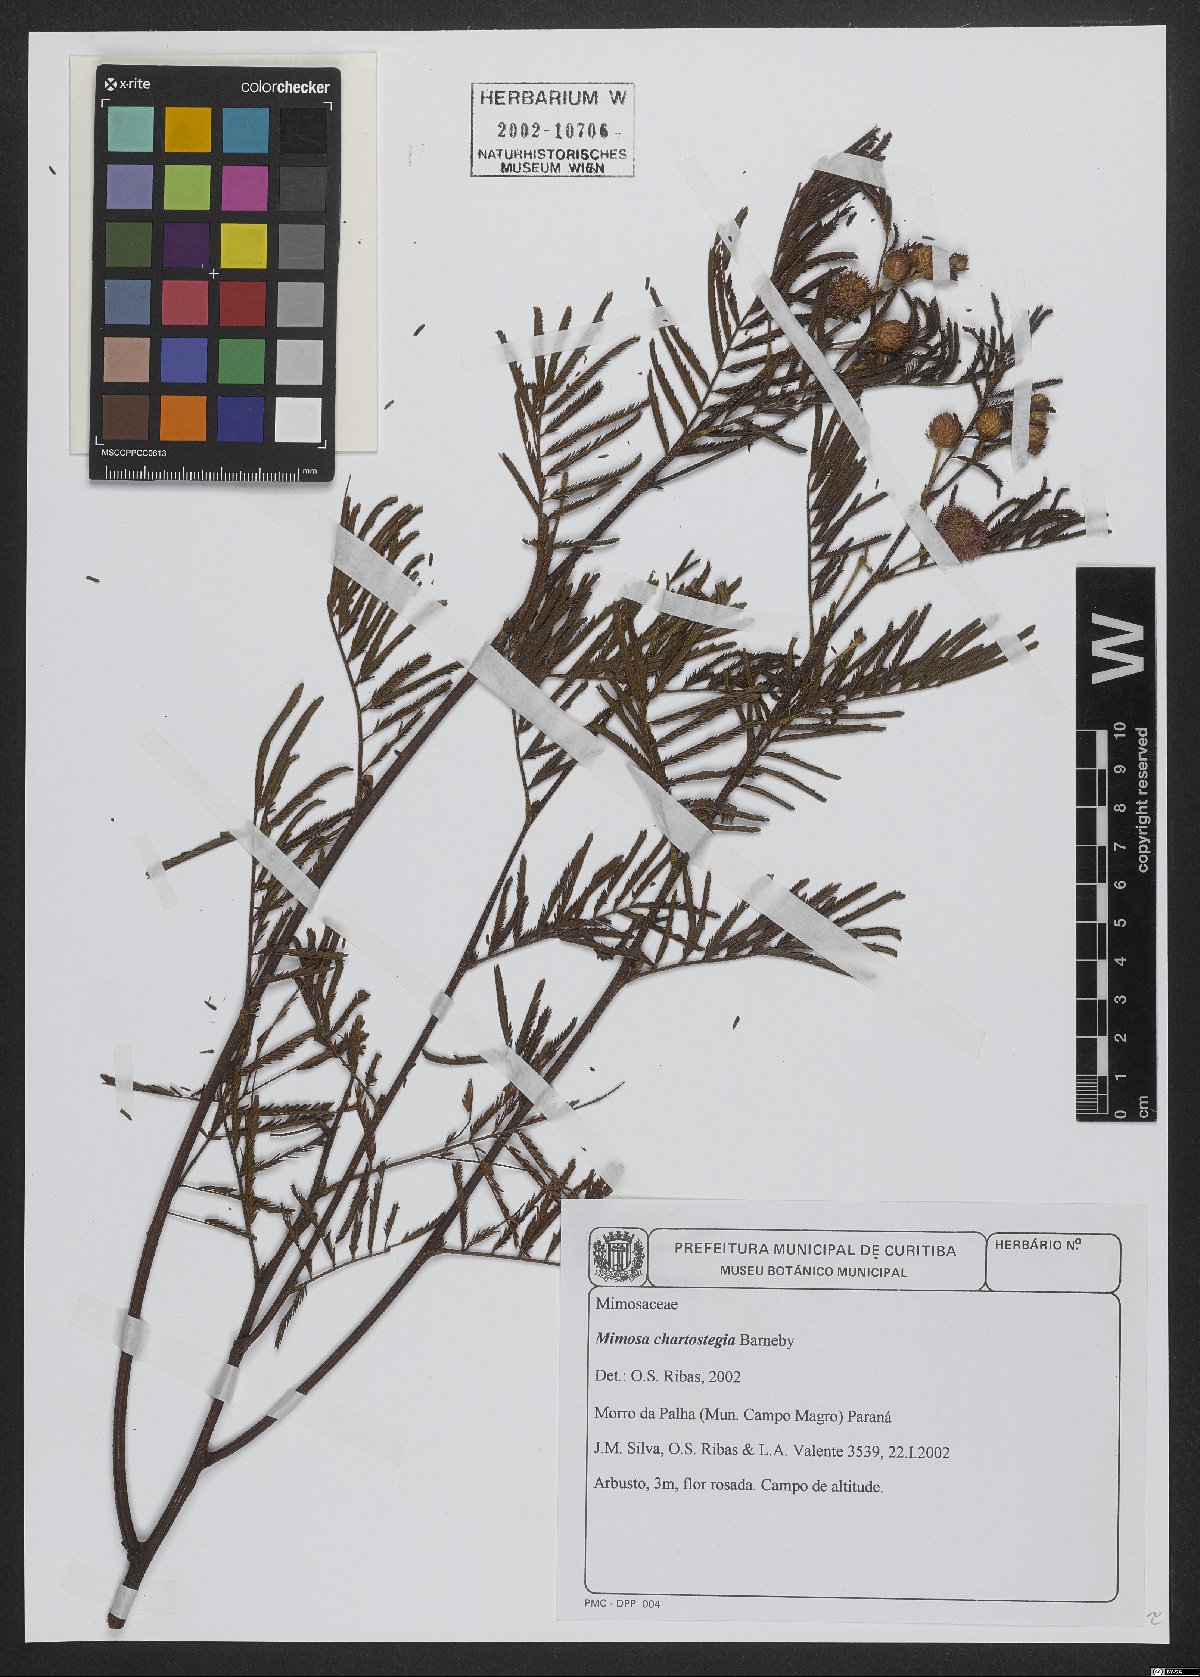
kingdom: Plantae
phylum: Tracheophyta
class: Magnoliopsida
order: Fabales
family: Fabaceae
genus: Mimosa
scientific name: Mimosa chartostegia
